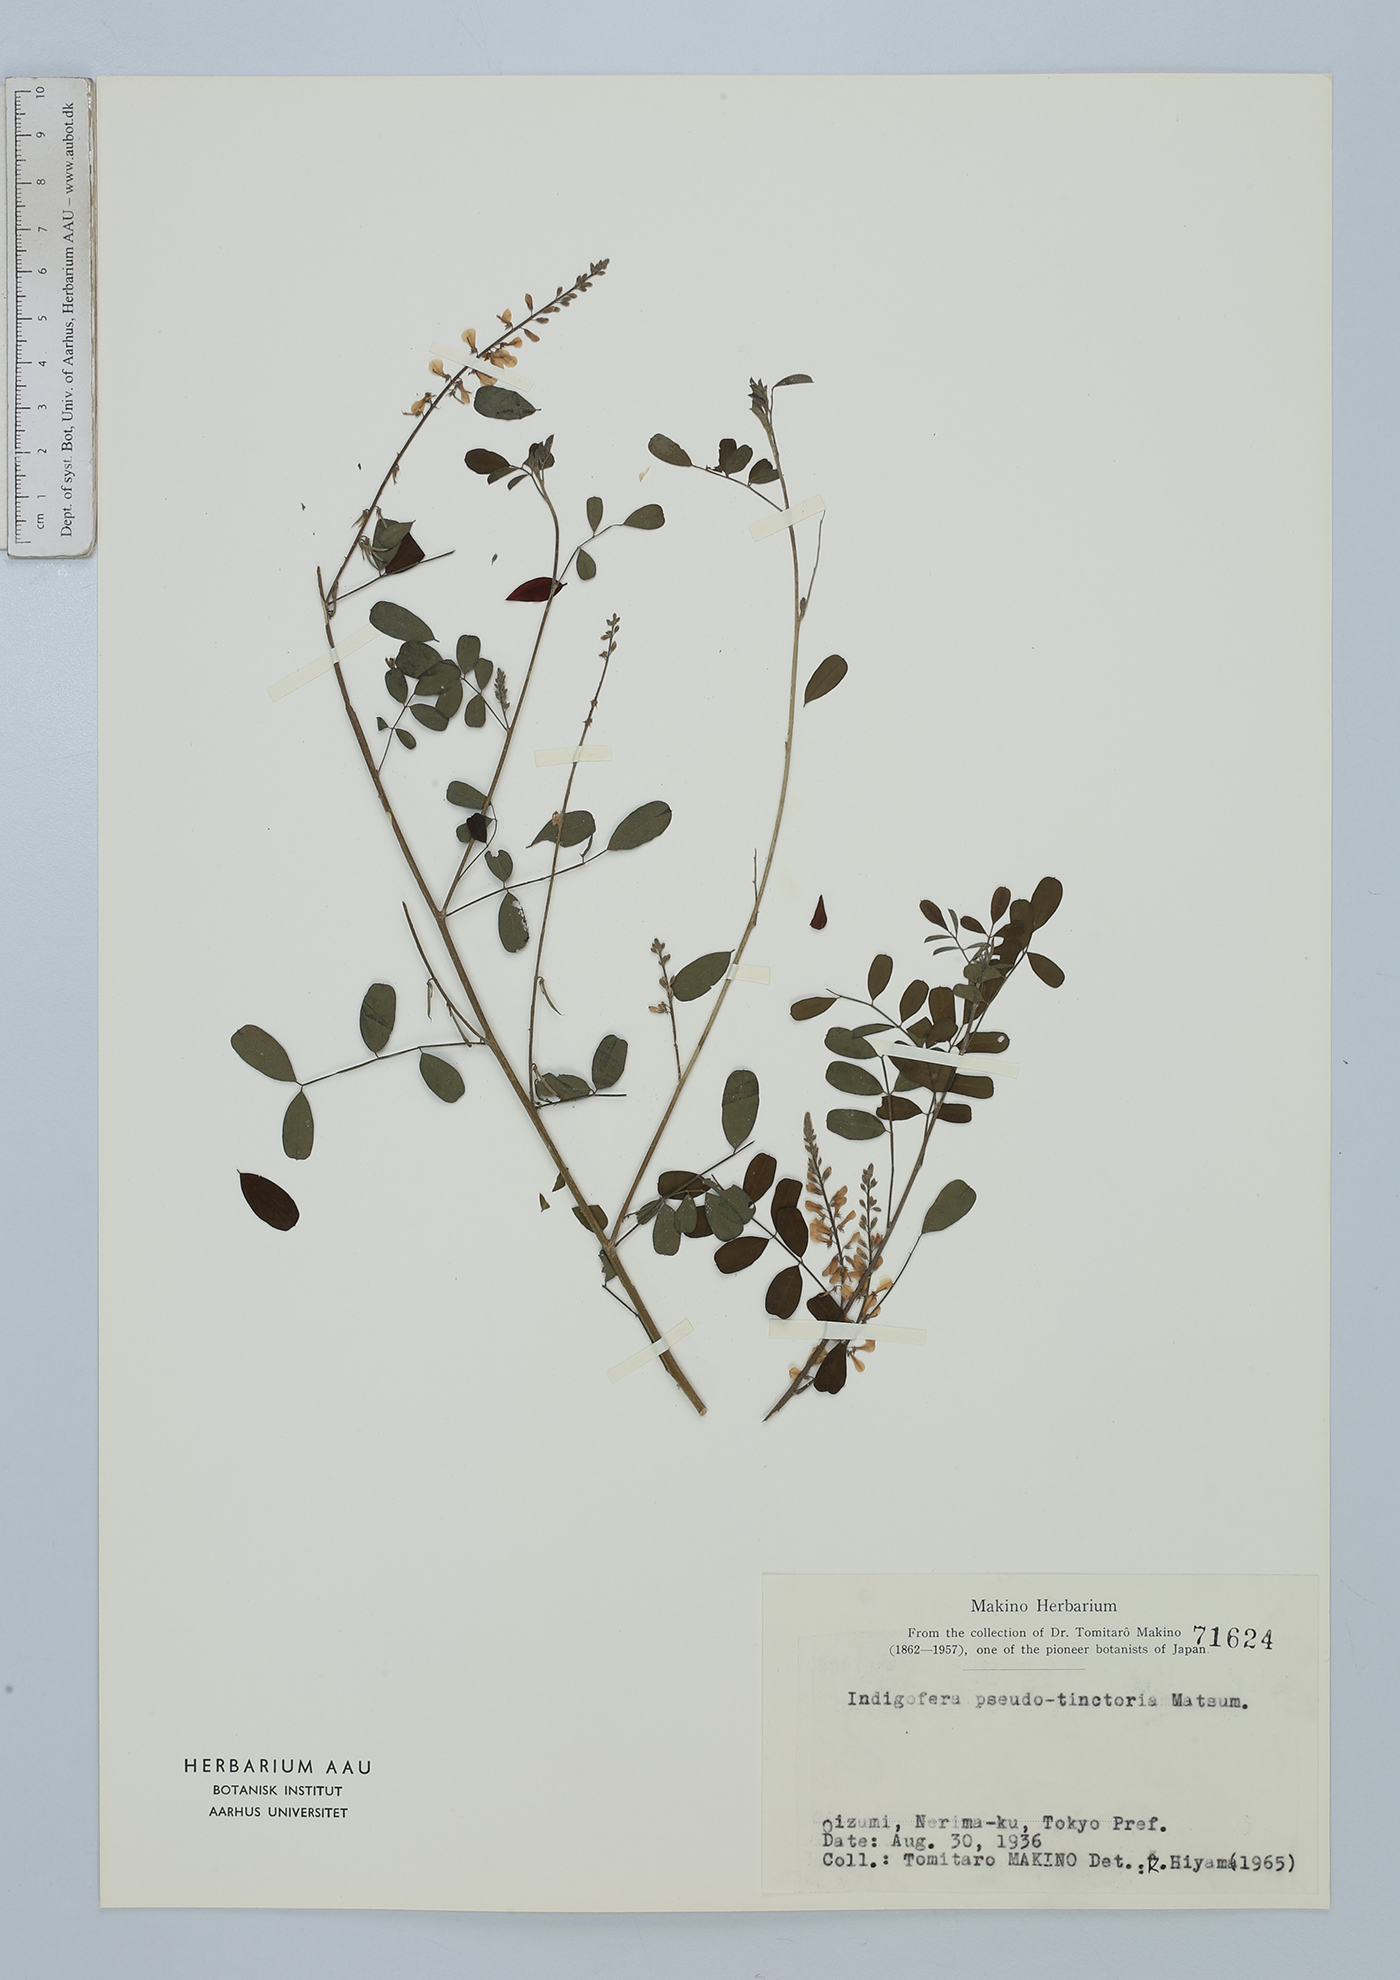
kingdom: Plantae
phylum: Tracheophyta
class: Magnoliopsida
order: Fabales
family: Fabaceae
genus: Indigofera
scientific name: Indigofera bungeana
